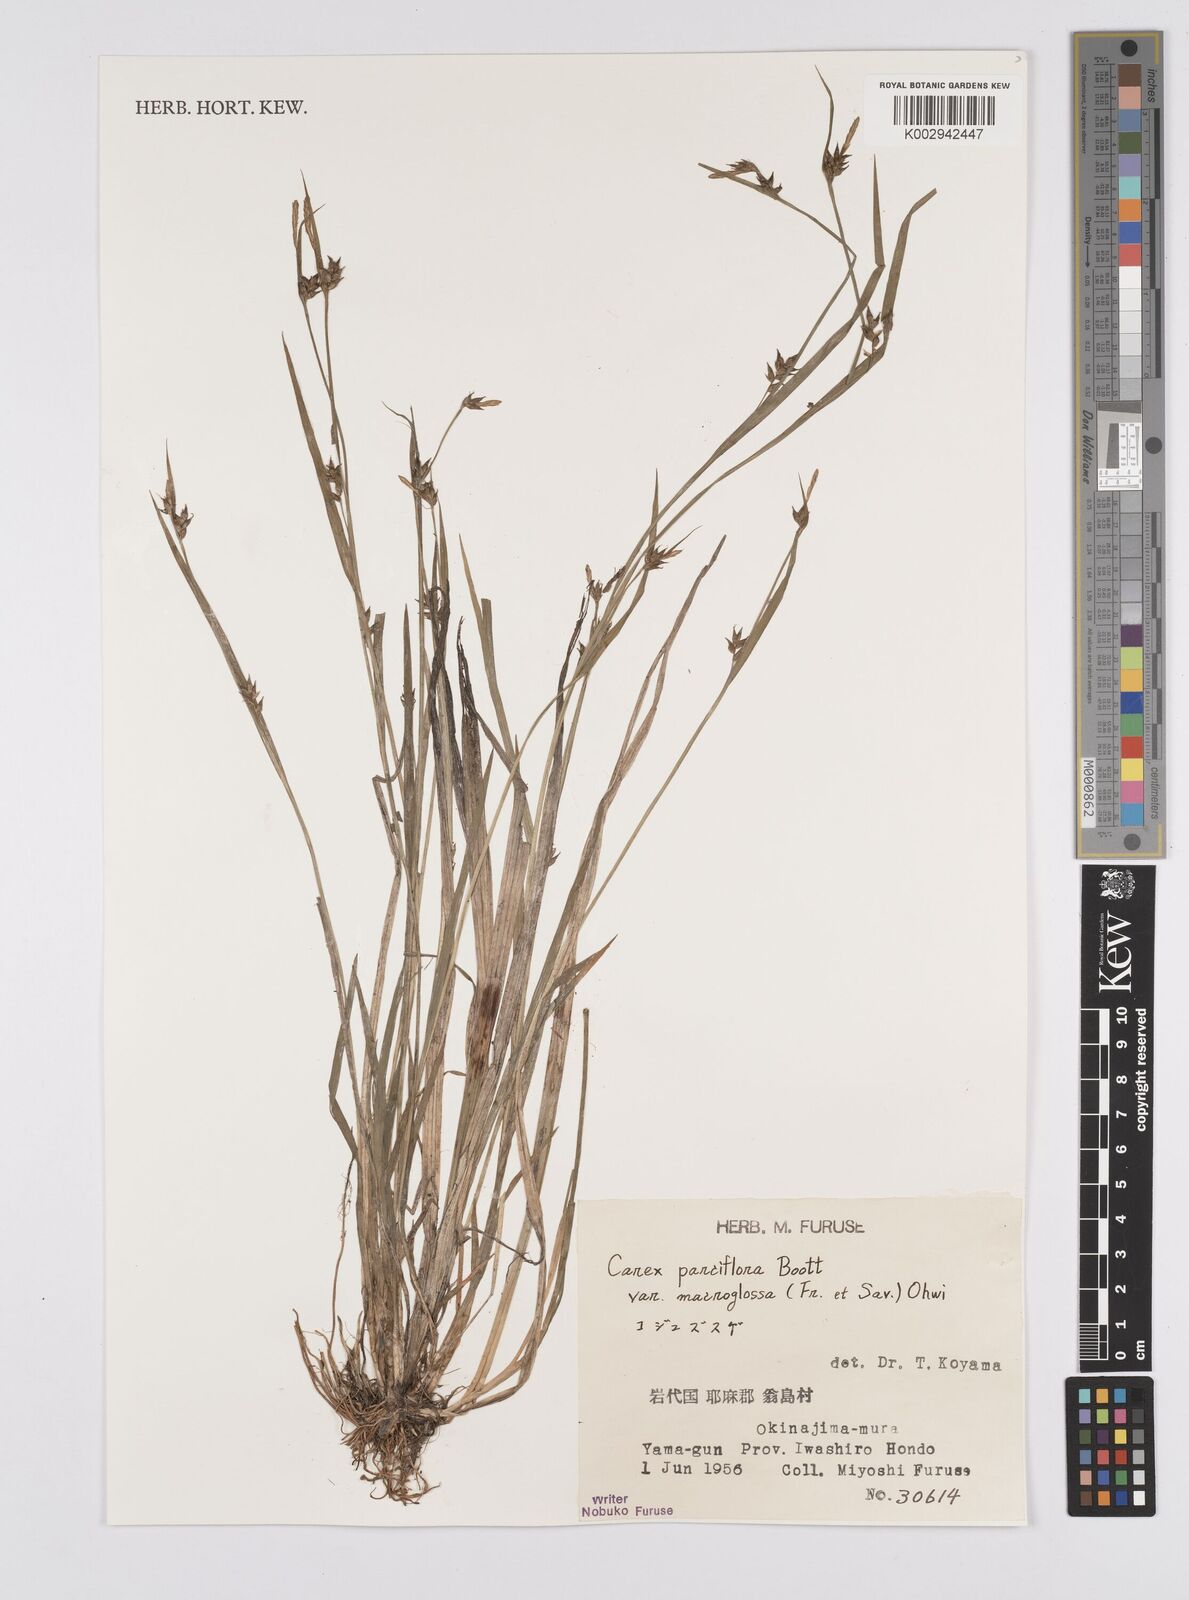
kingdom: Plantae
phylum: Tracheophyta
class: Liliopsida
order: Poales
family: Cyperaceae
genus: Carex
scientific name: Carex jackiana
